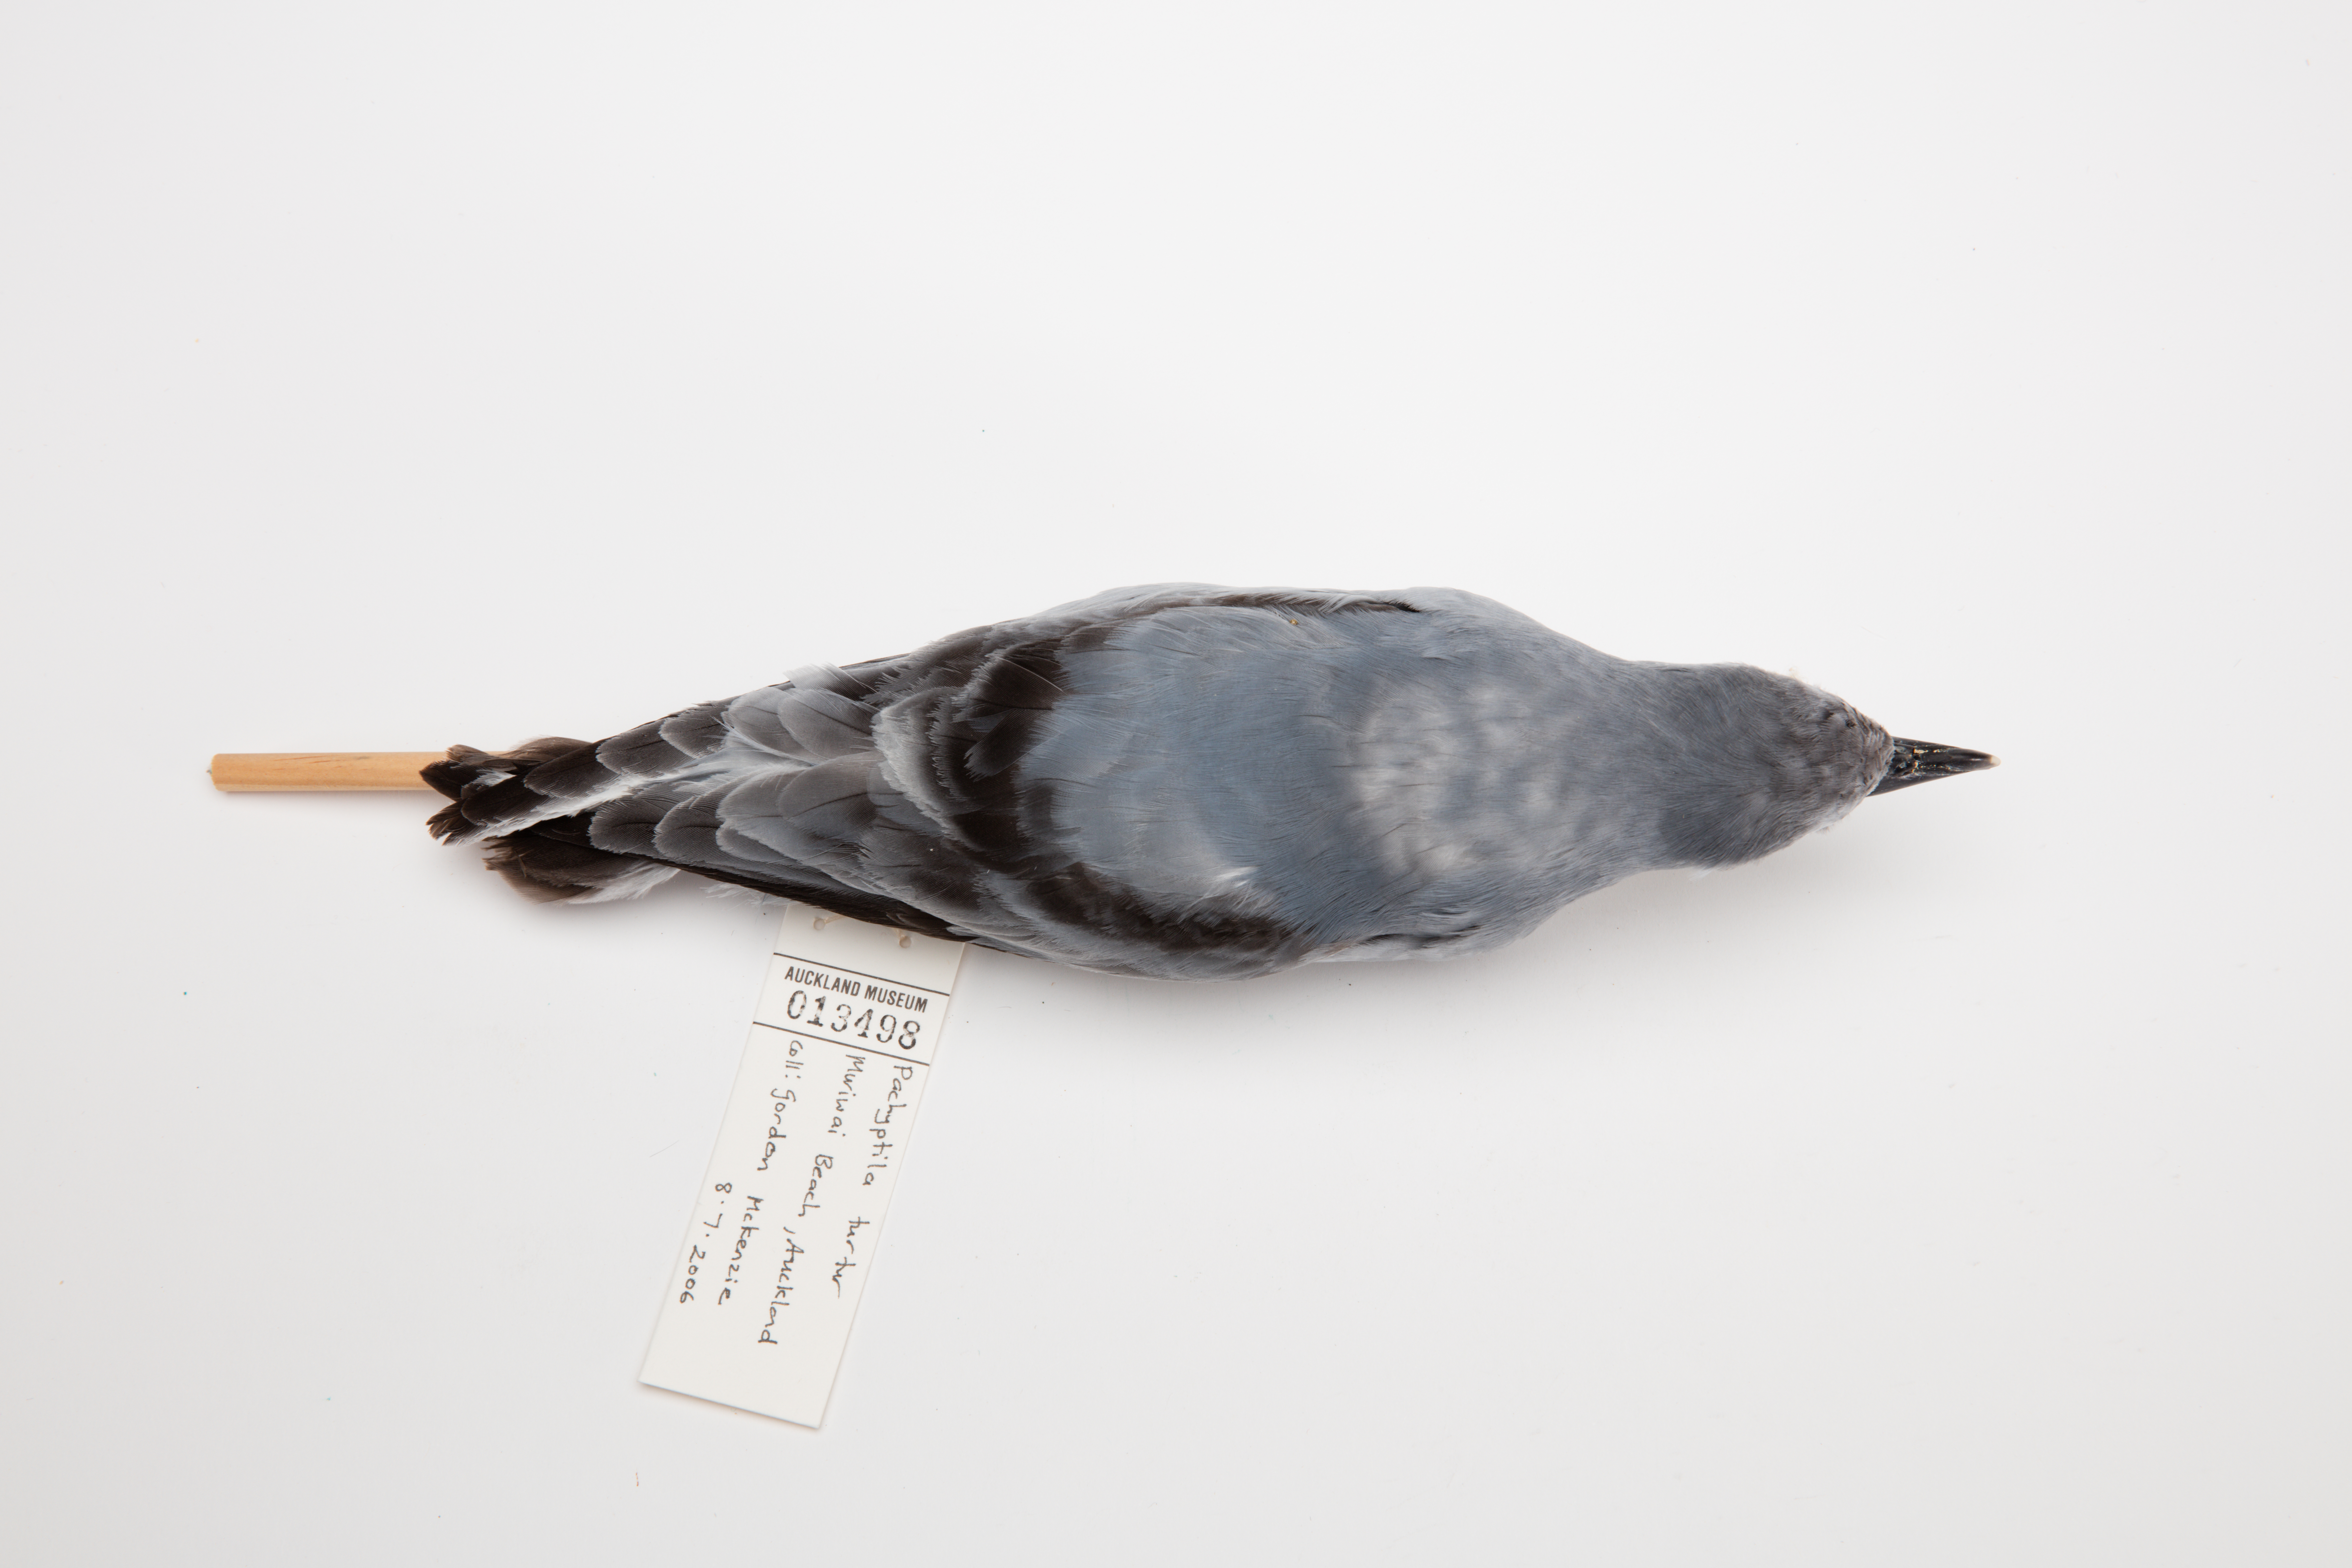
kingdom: Animalia
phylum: Chordata
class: Aves
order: Procellariiformes
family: Procellariidae
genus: Pachyptila
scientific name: Pachyptila turtur
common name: Fairy prion
